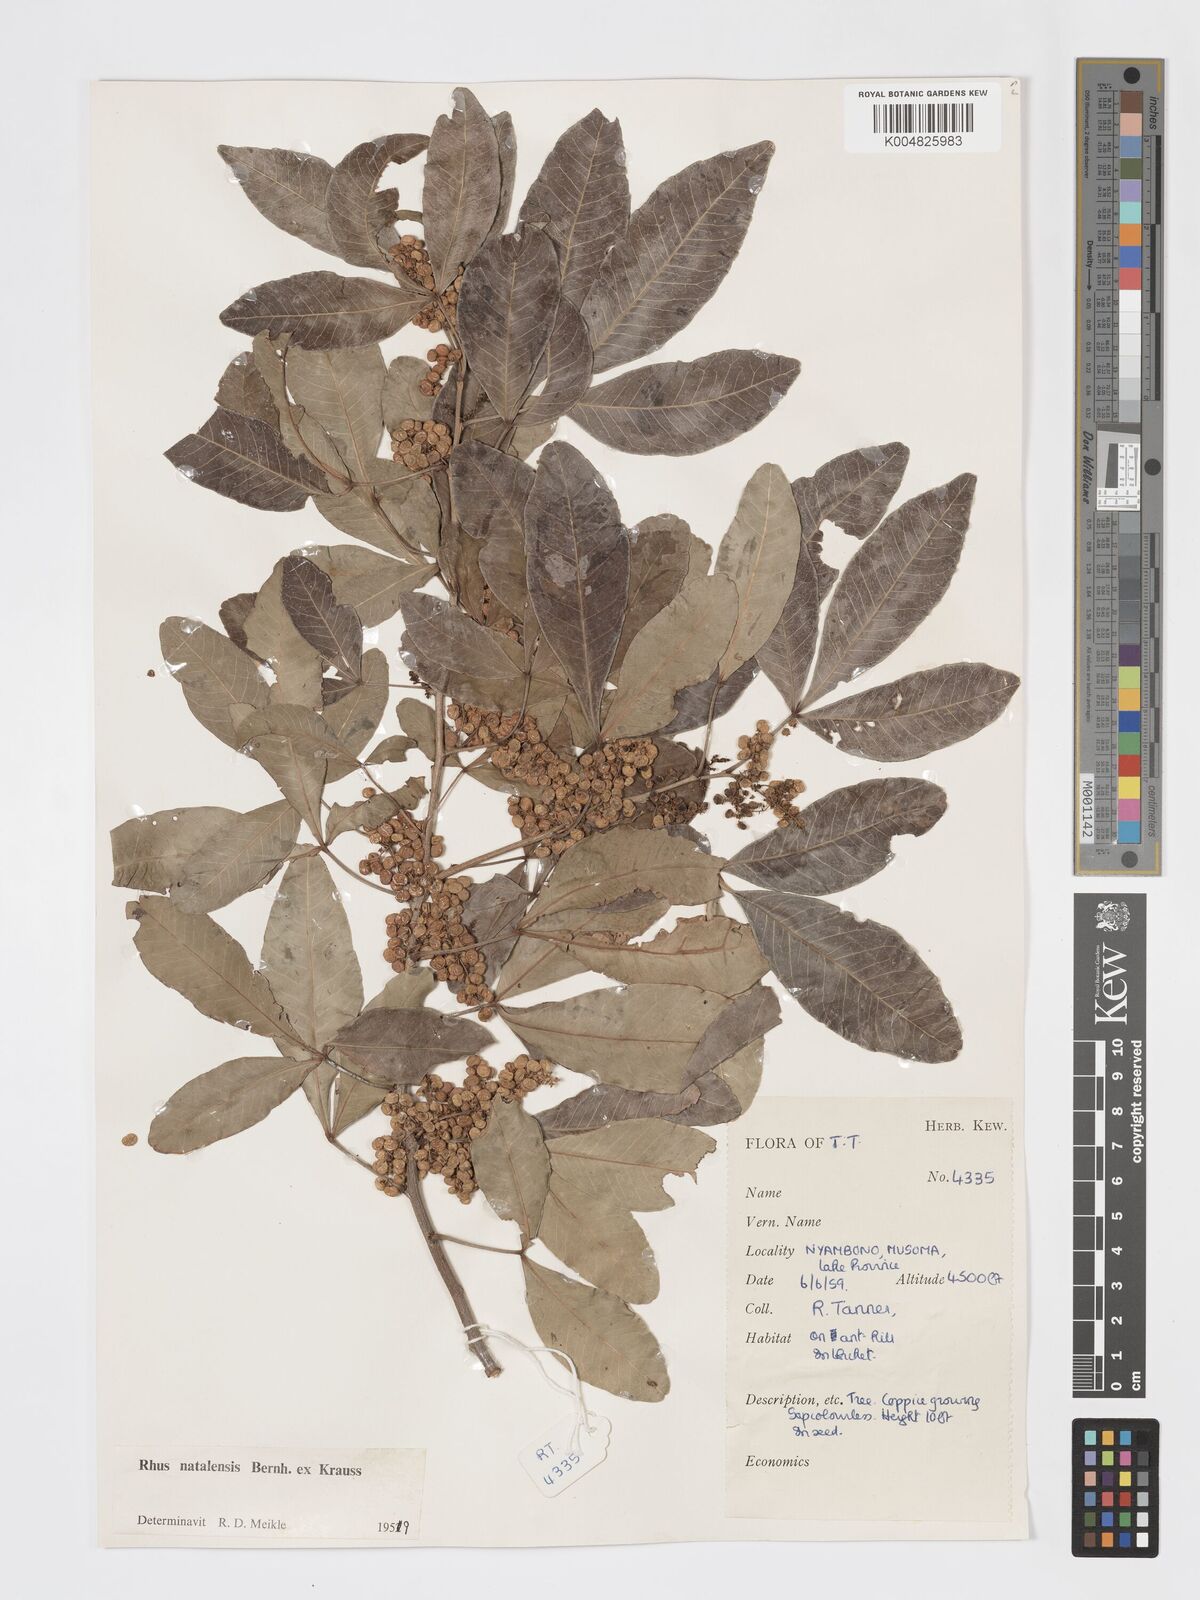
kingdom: Plantae
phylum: Tracheophyta
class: Magnoliopsida
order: Sapindales
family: Anacardiaceae
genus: Searsia
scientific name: Searsia natalensis
